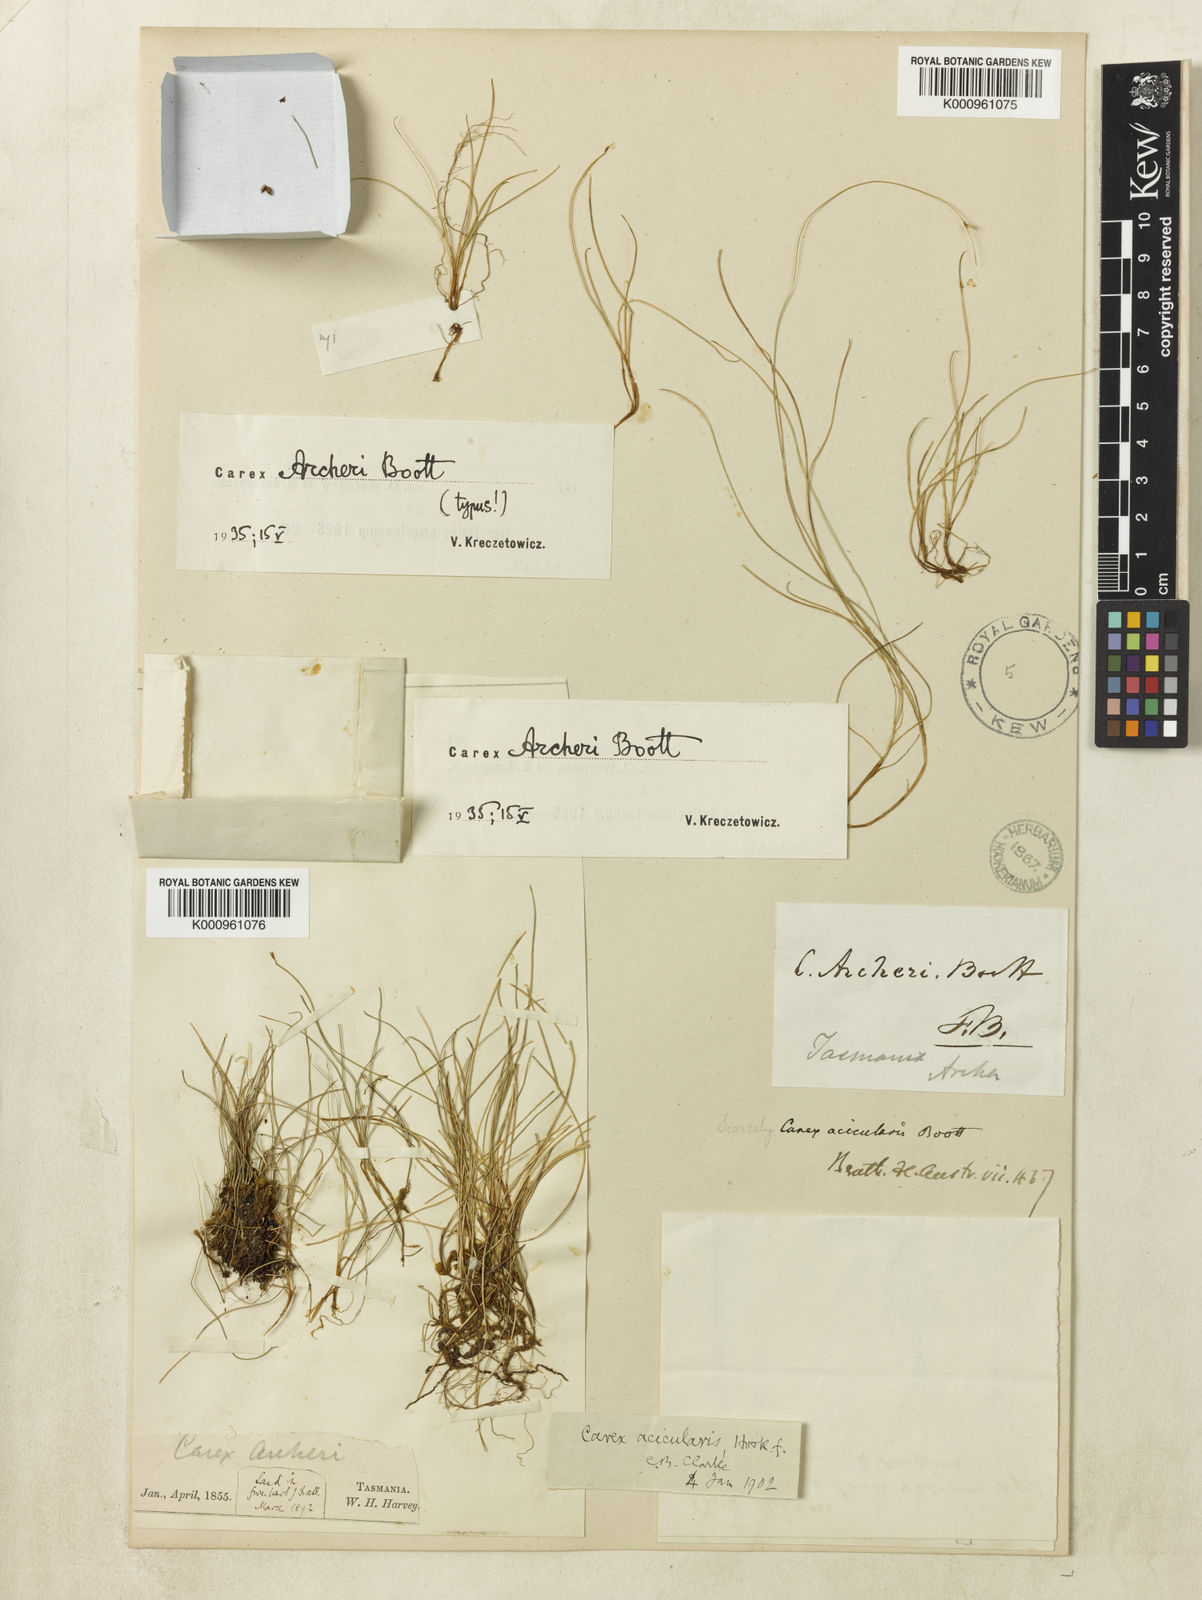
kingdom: Plantae
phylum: Tracheophyta
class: Liliopsida
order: Poales
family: Cyperaceae
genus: Carex
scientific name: Carex acicularis
